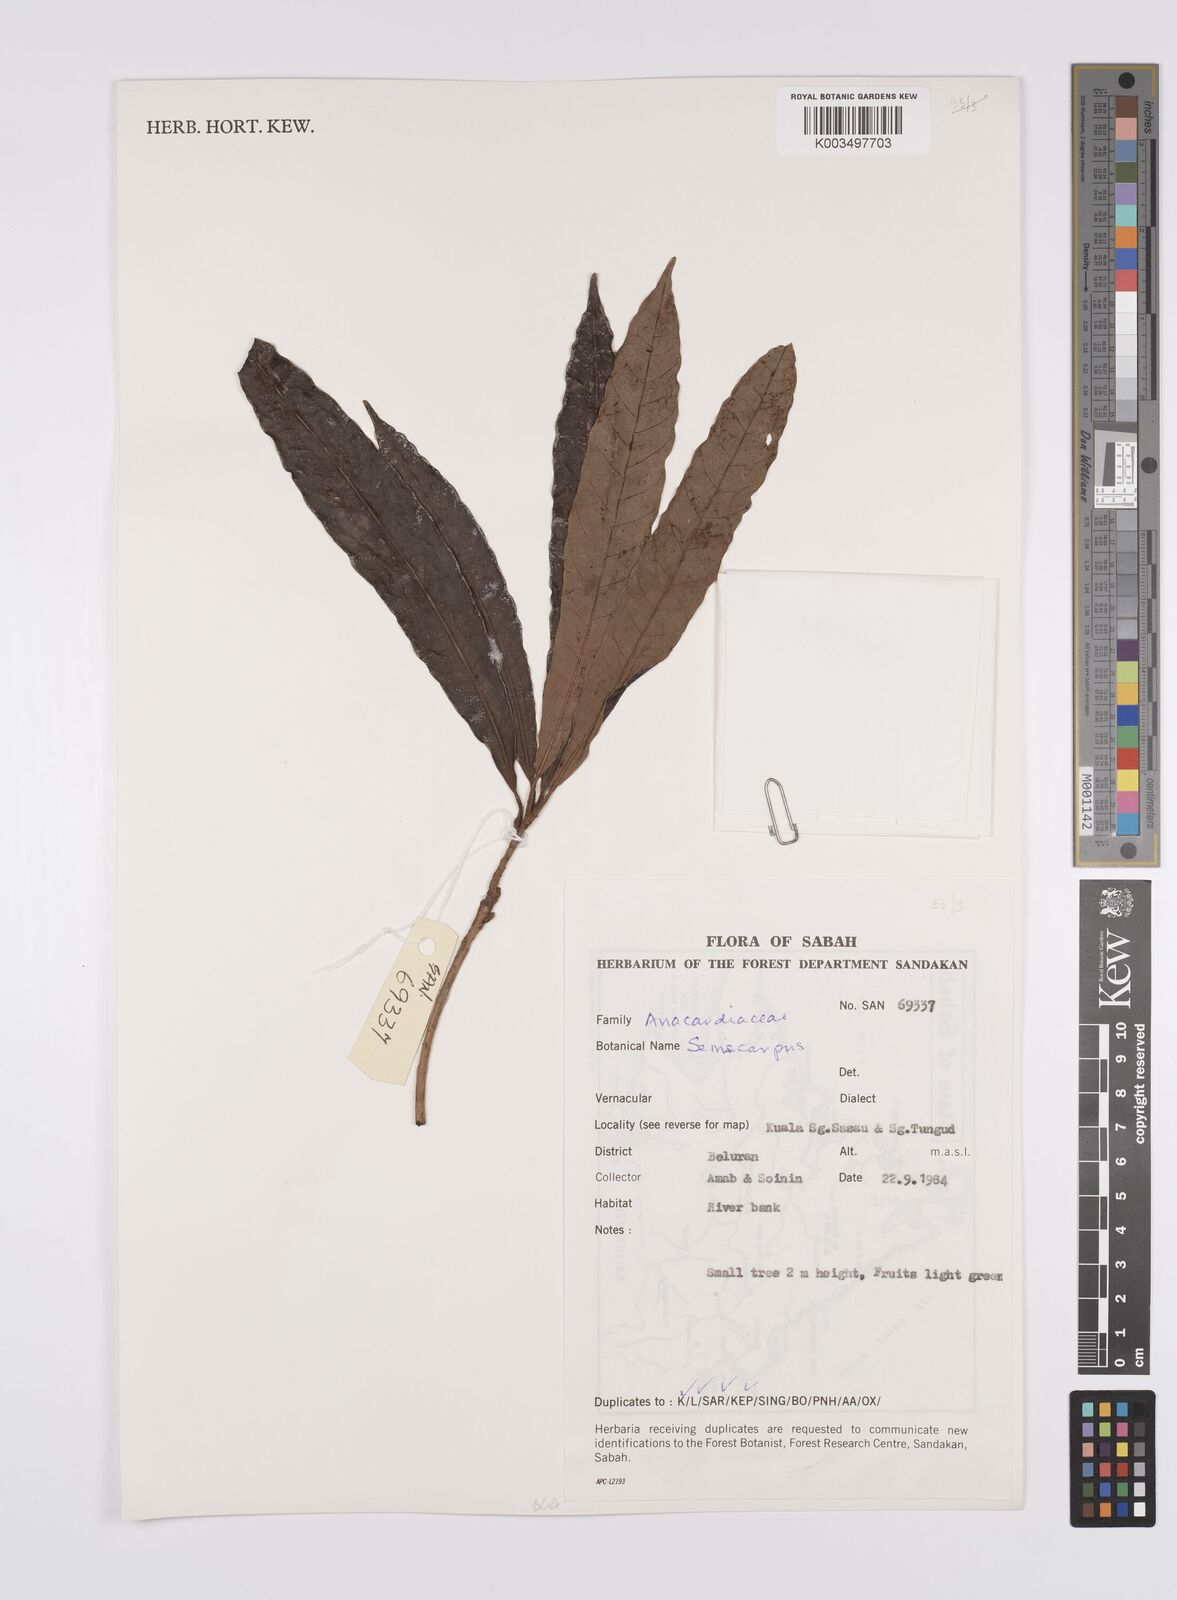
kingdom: Plantae
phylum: Tracheophyta
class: Magnoliopsida
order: Sapindales
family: Anacardiaceae
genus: Semecarpus
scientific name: Semecarpus
